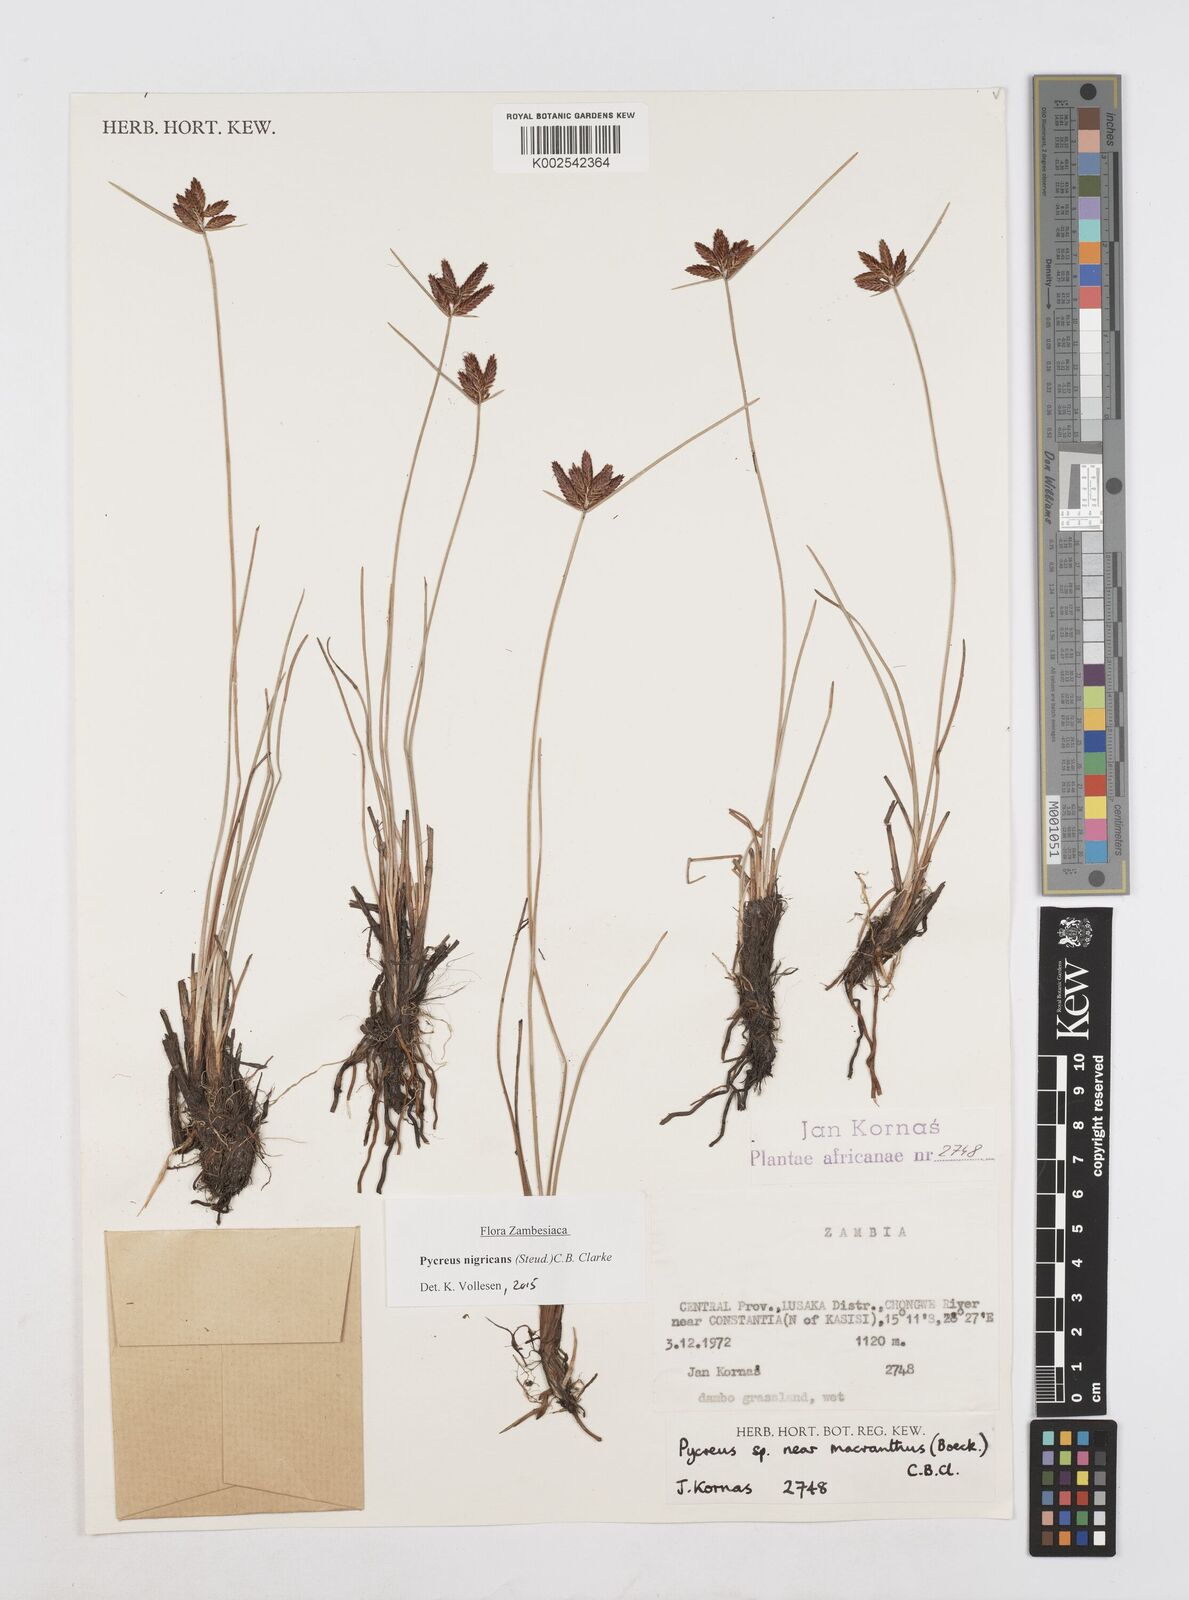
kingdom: Plantae
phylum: Tracheophyta
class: Liliopsida
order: Poales
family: Cyperaceae
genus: Cyperus
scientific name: Cyperus nigricans
